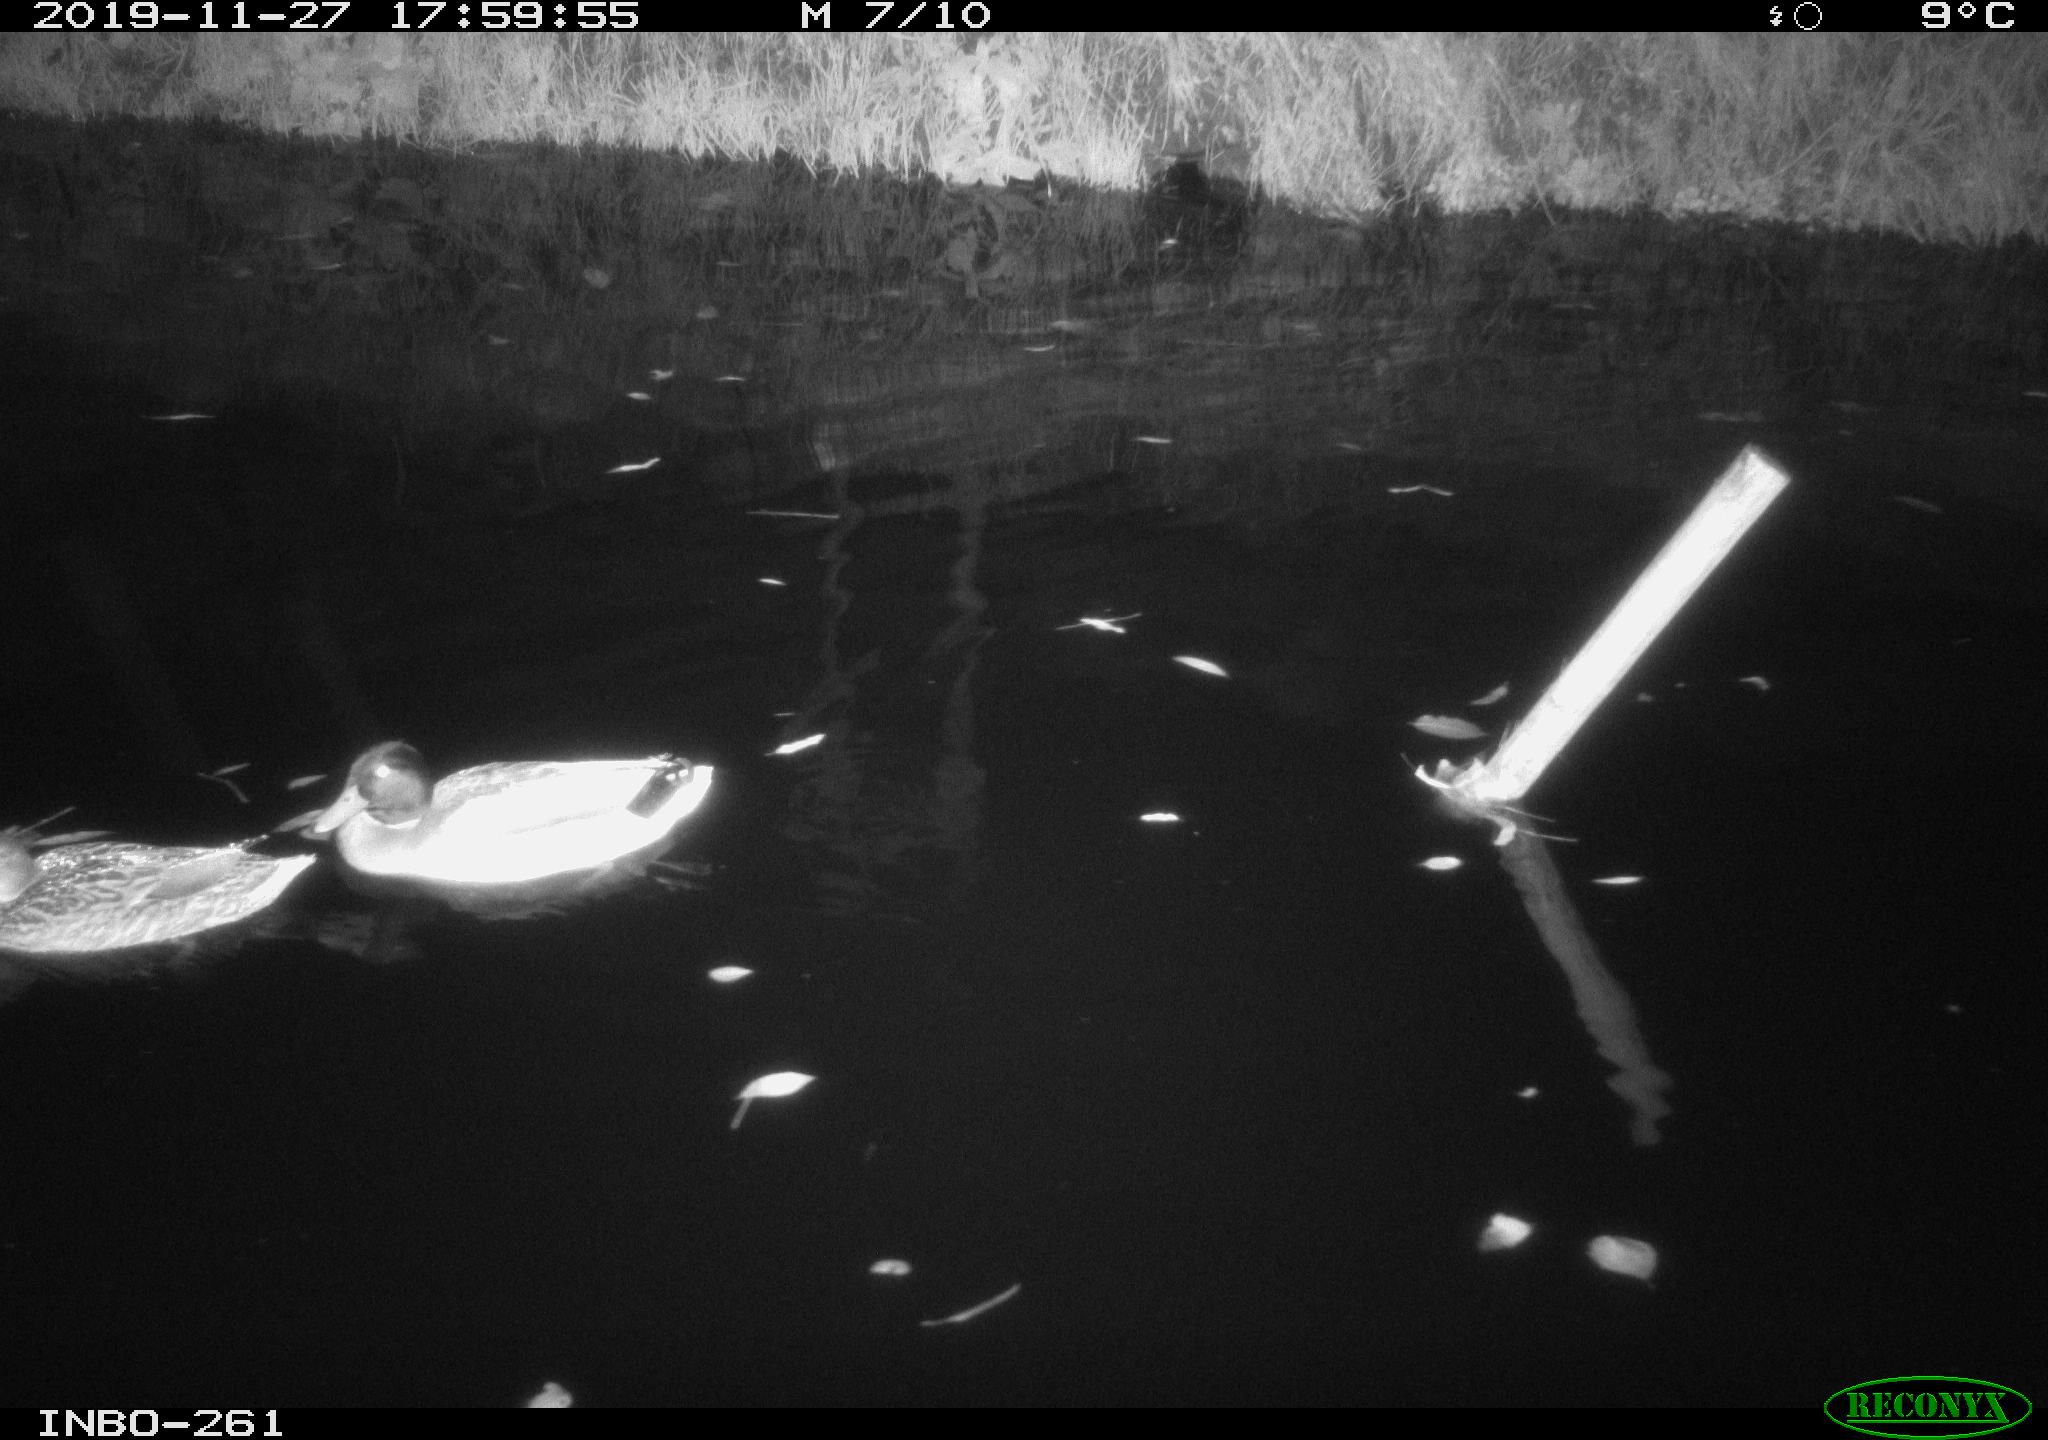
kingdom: Animalia
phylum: Chordata
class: Aves
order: Anseriformes
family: Anatidae
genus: Anas
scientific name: Anas platyrhynchos
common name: Mallard
